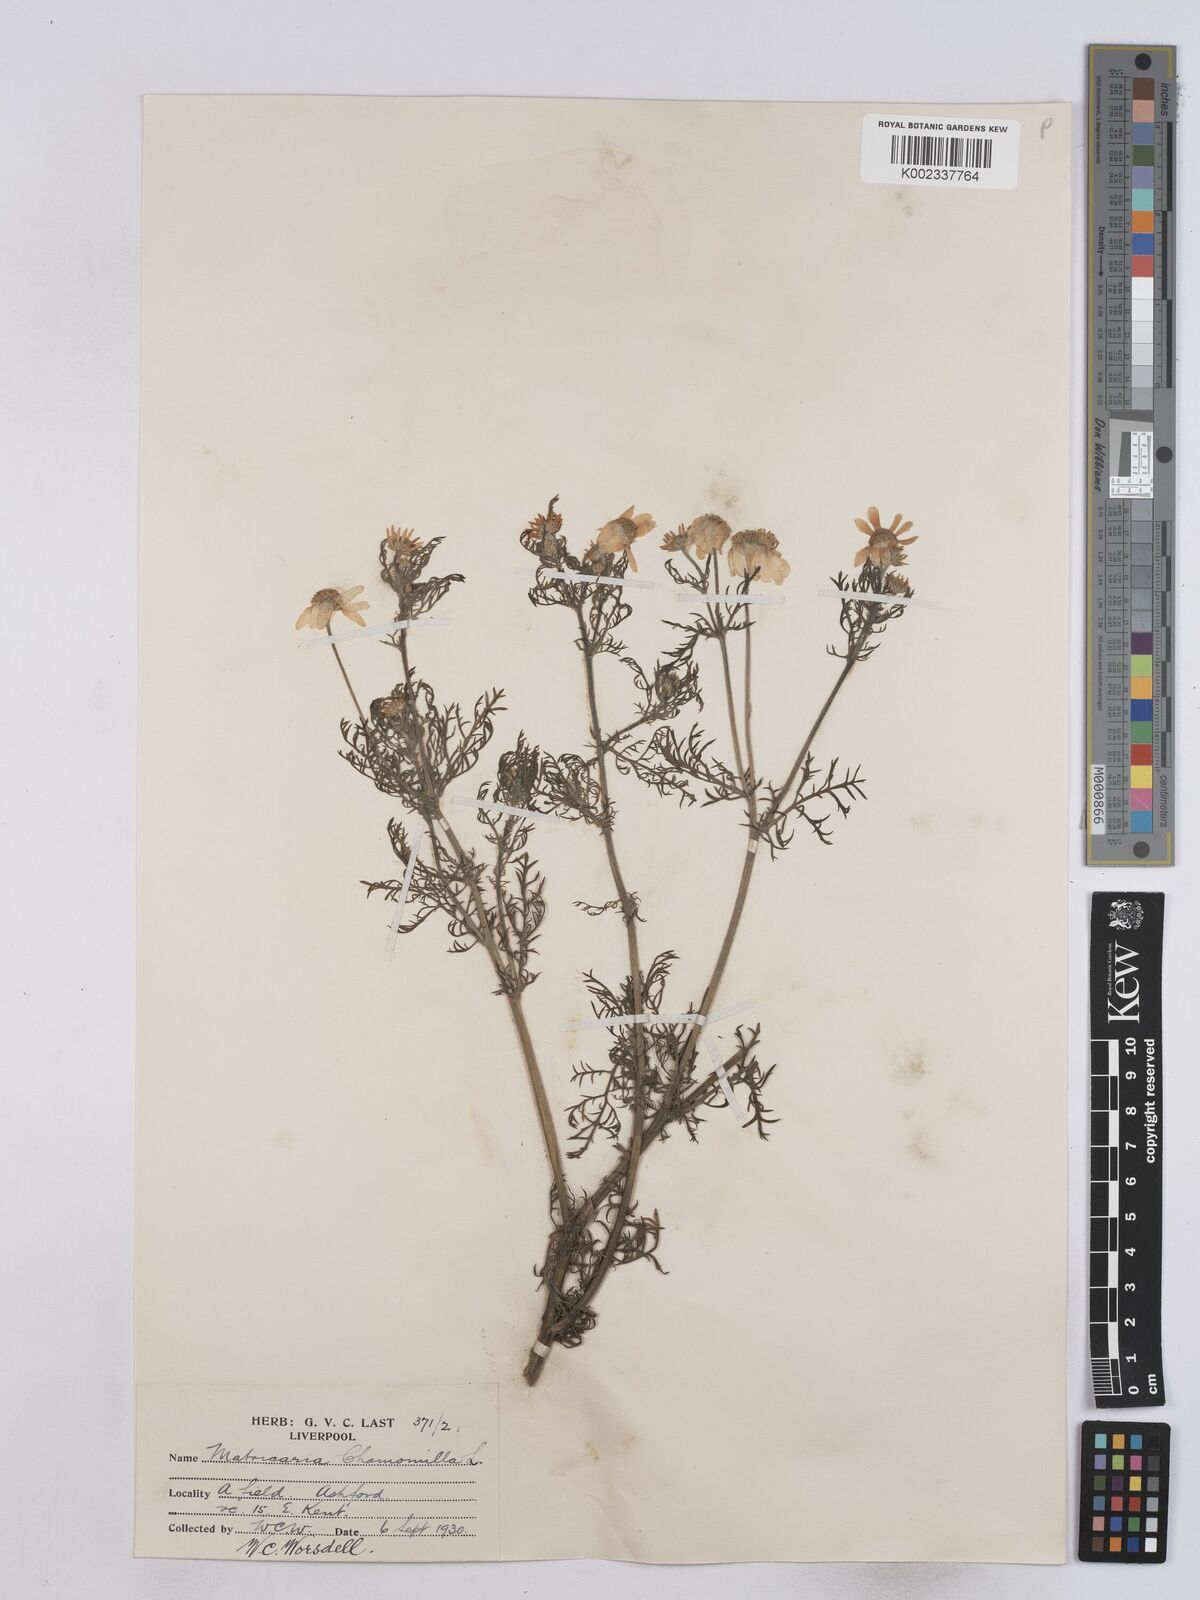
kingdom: Plantae
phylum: Tracheophyta
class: Magnoliopsida
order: Asterales
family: Asteraceae
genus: Matricaria
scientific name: Matricaria chamomilla
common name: Scented mayweed
